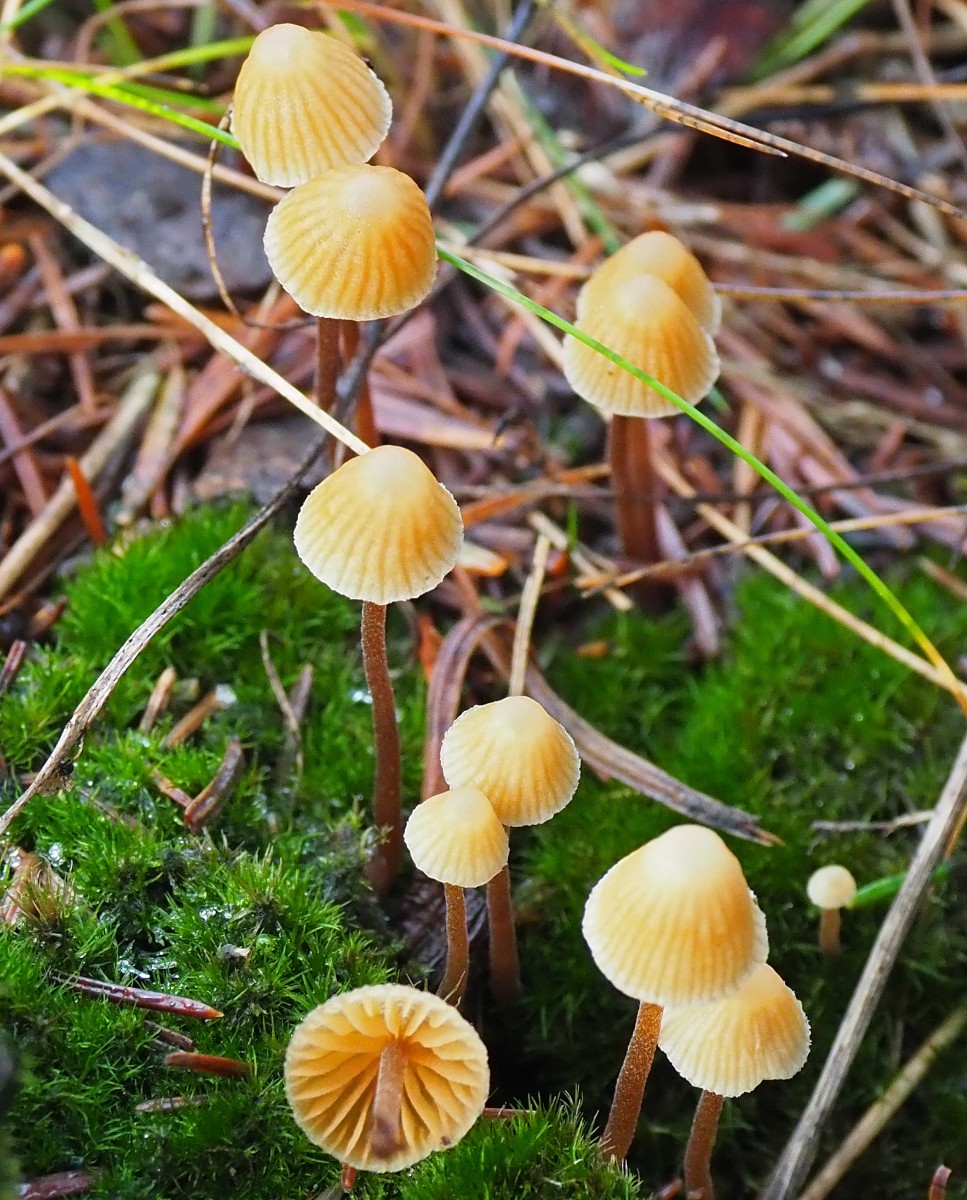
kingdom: Fungi
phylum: Basidiomycota
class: Agaricomycetes
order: Agaricales
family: Hymenogastraceae
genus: Galerina
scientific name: Galerina vittiformis
